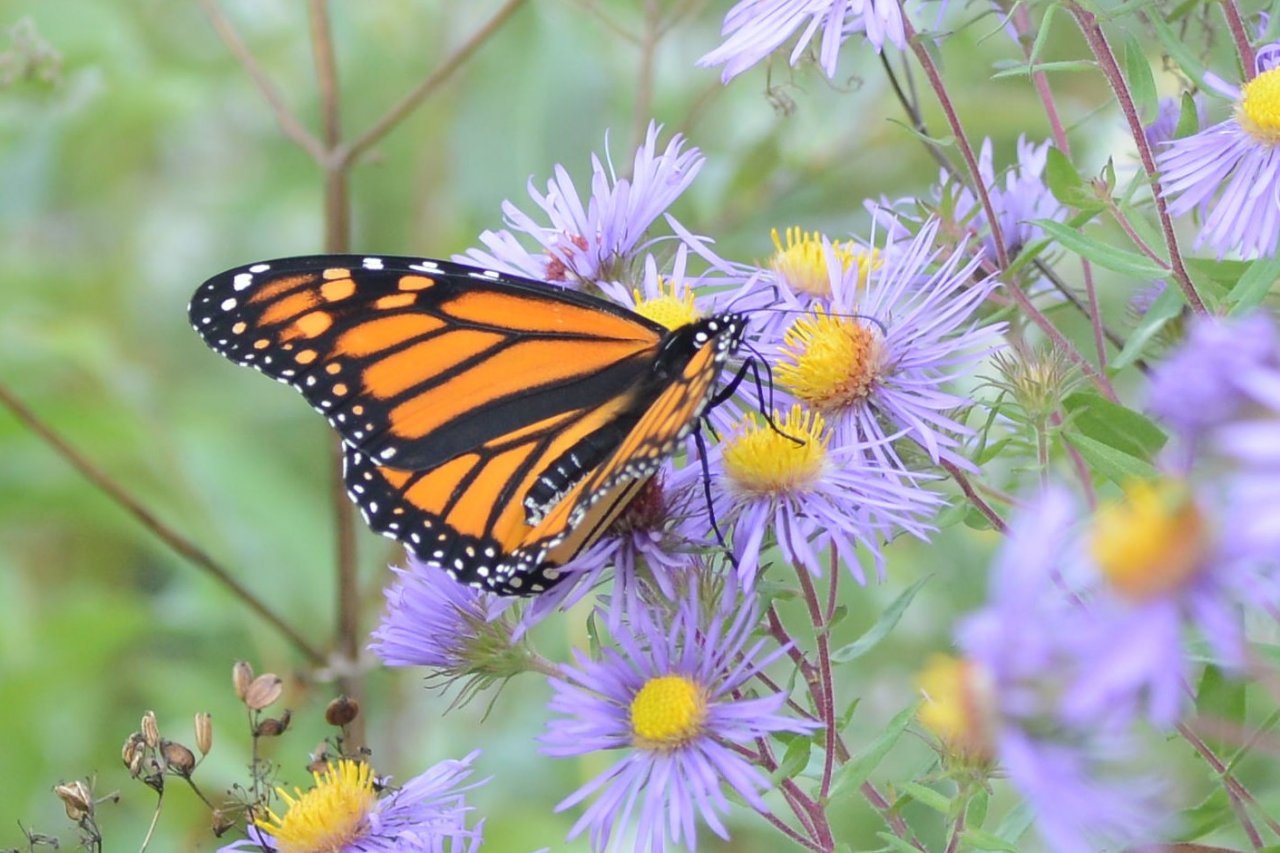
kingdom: Animalia
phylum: Arthropoda
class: Insecta
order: Lepidoptera
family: Nymphalidae
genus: Danaus
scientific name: Danaus plexippus
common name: Monarch
